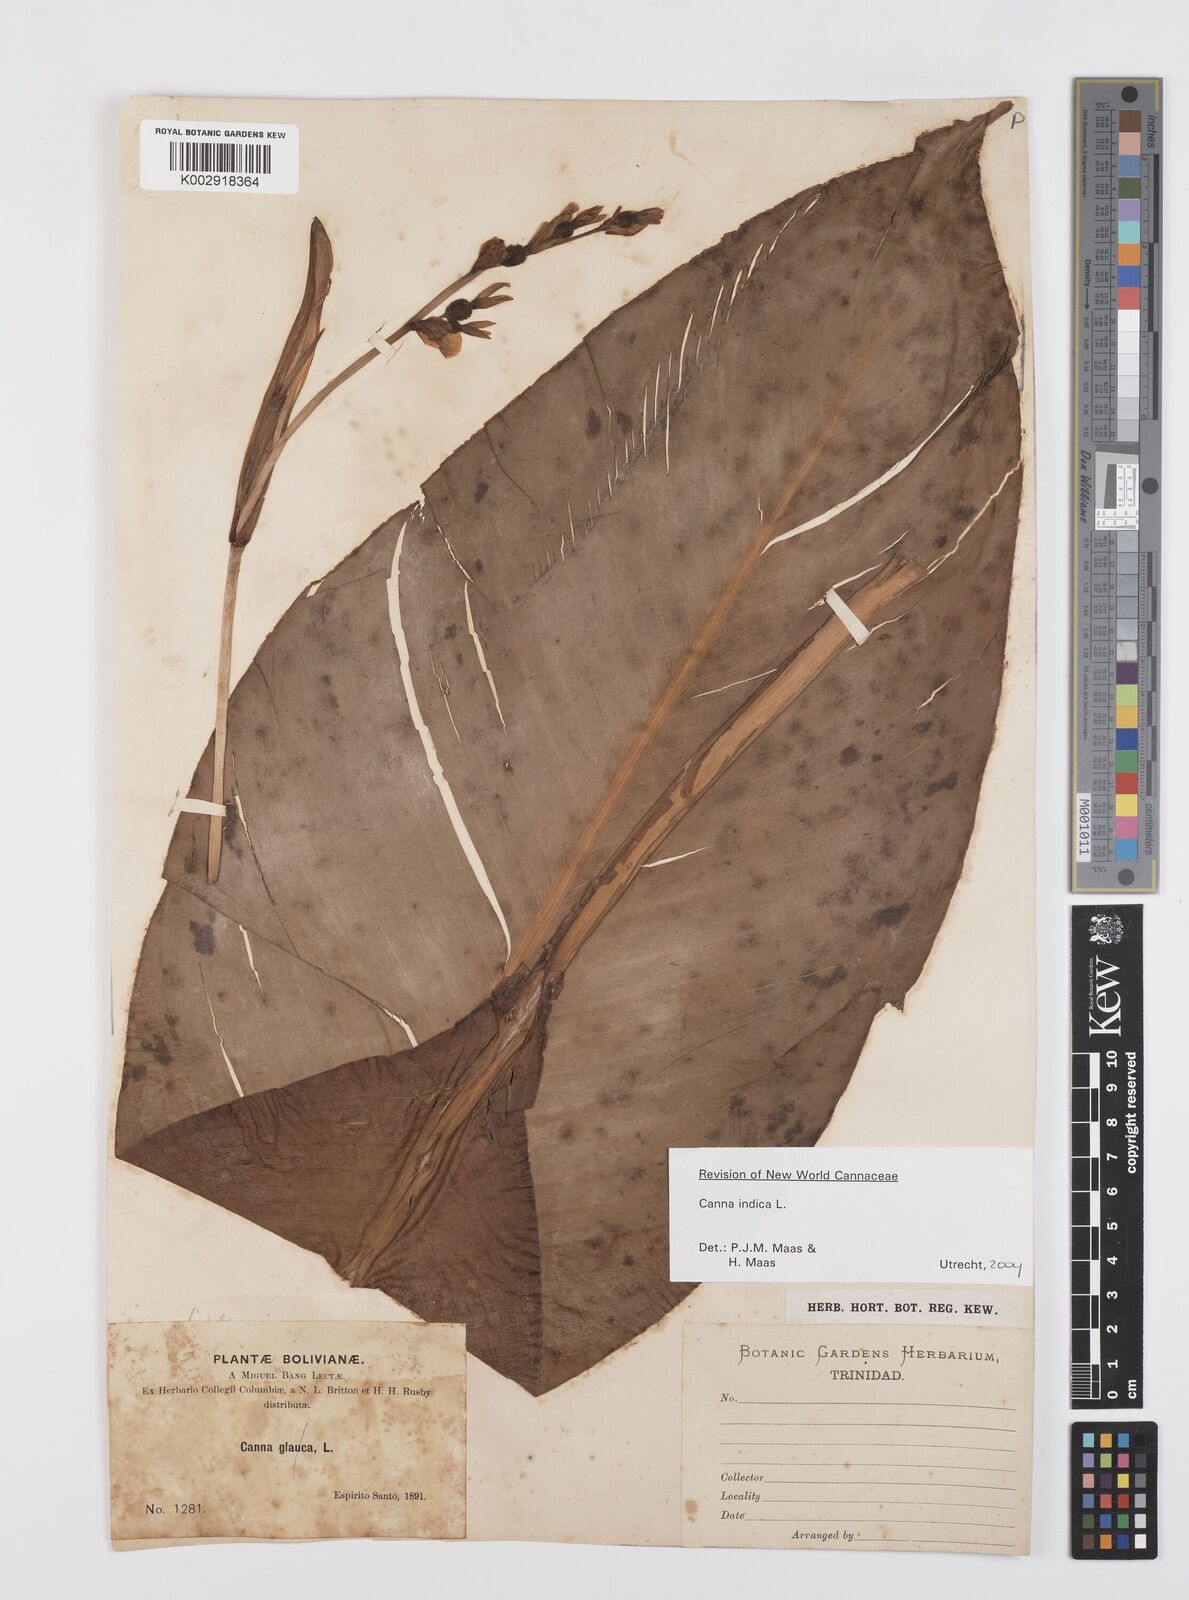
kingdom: Plantae
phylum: Tracheophyta
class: Liliopsida
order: Zingiberales
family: Cannaceae
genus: Canna
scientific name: Canna indica
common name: Indian shot
